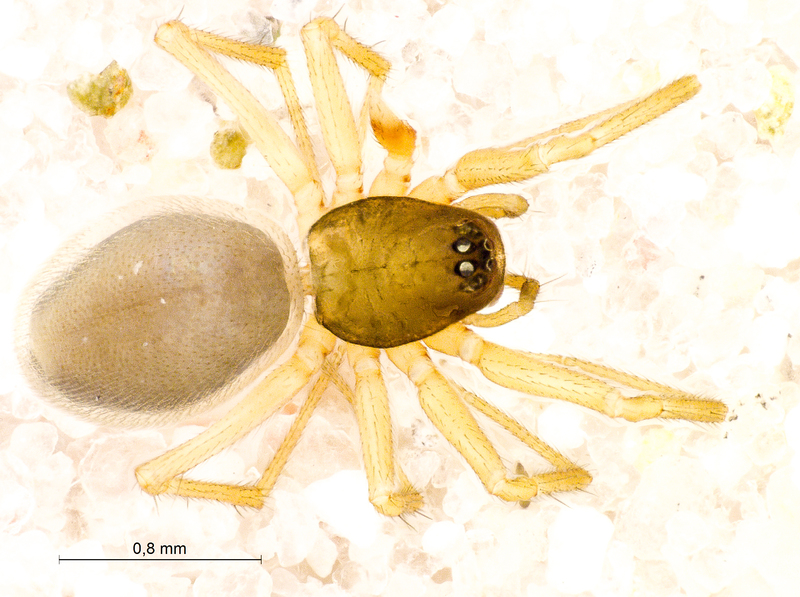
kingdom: Animalia
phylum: Arthropoda
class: Arachnida
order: Araneae
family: Linyphiidae
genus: Agyneta
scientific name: Agyneta rurestris
